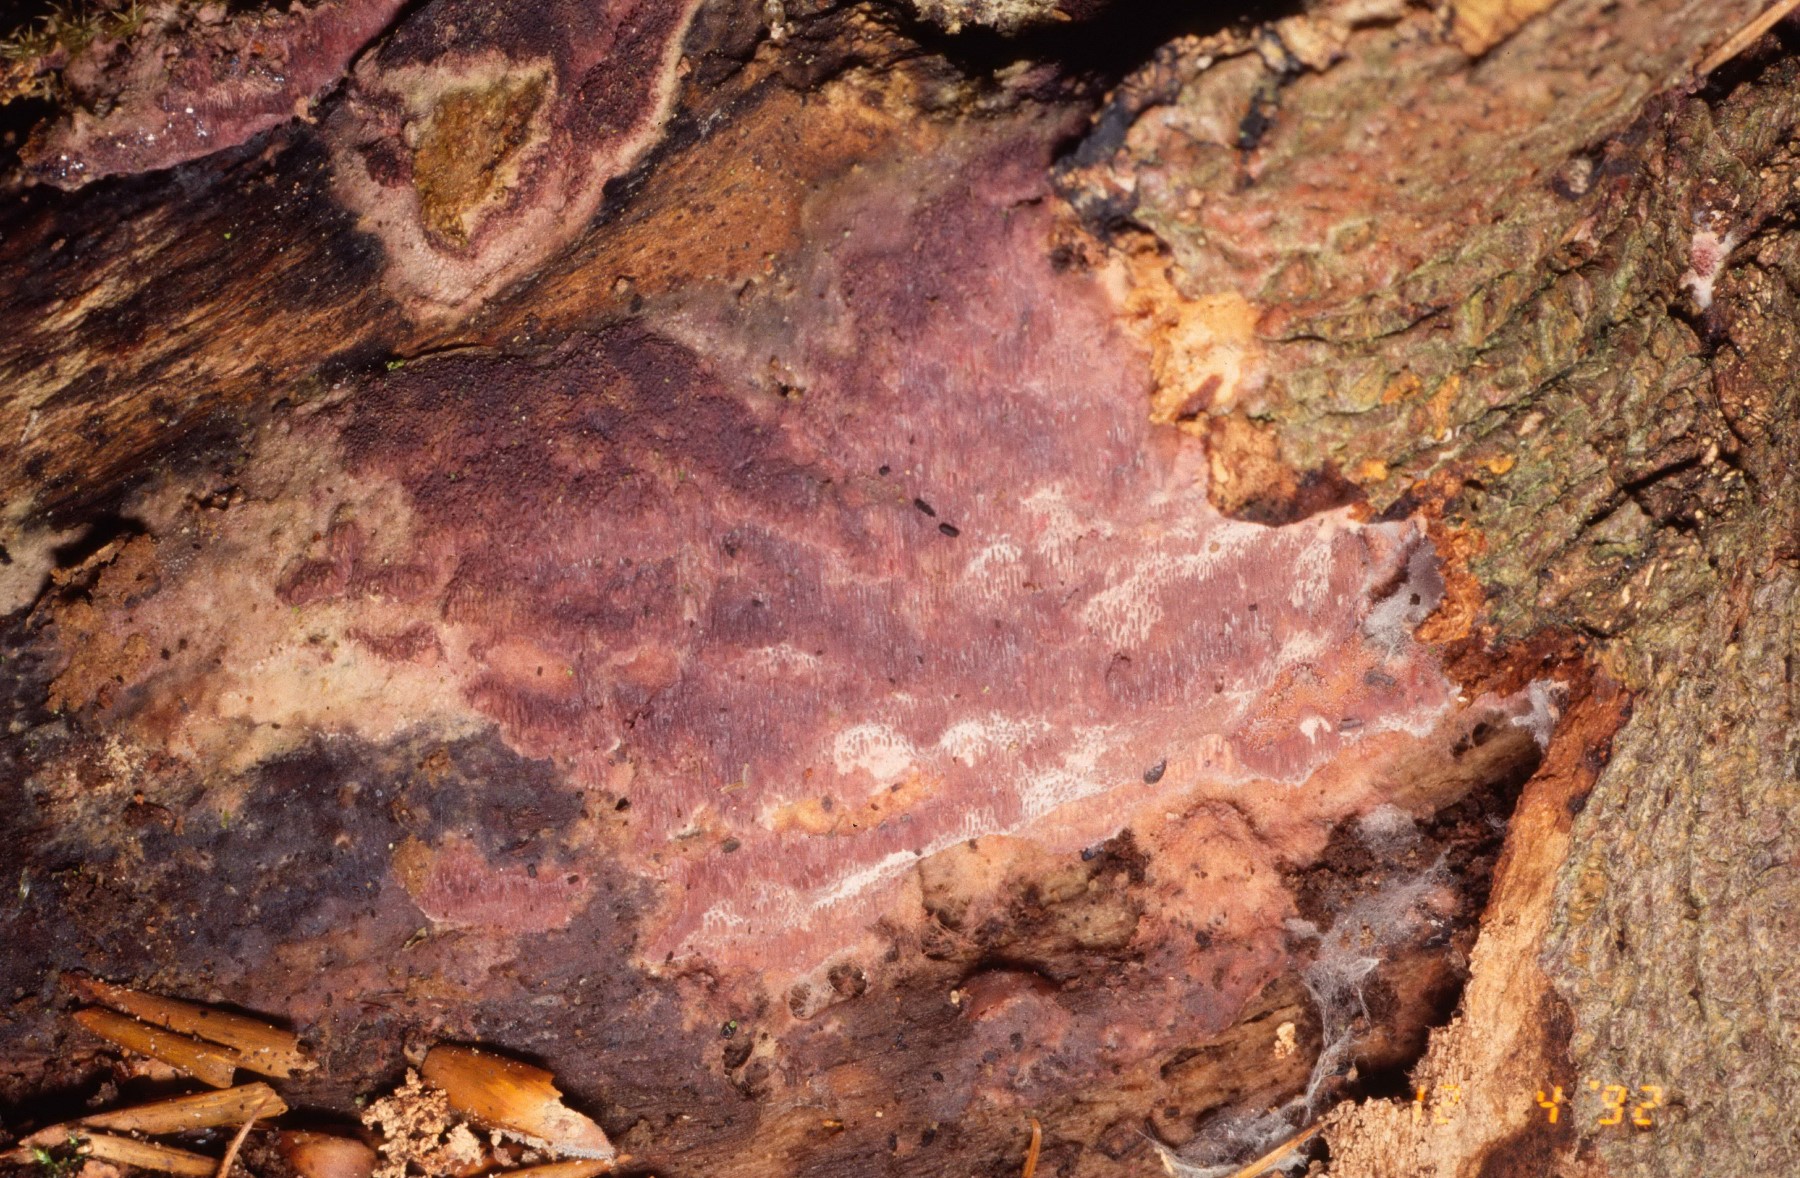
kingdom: Fungi
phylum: Basidiomycota
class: Agaricomycetes
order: Polyporales
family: Irpicaceae
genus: Ceriporia
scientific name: Ceriporia
